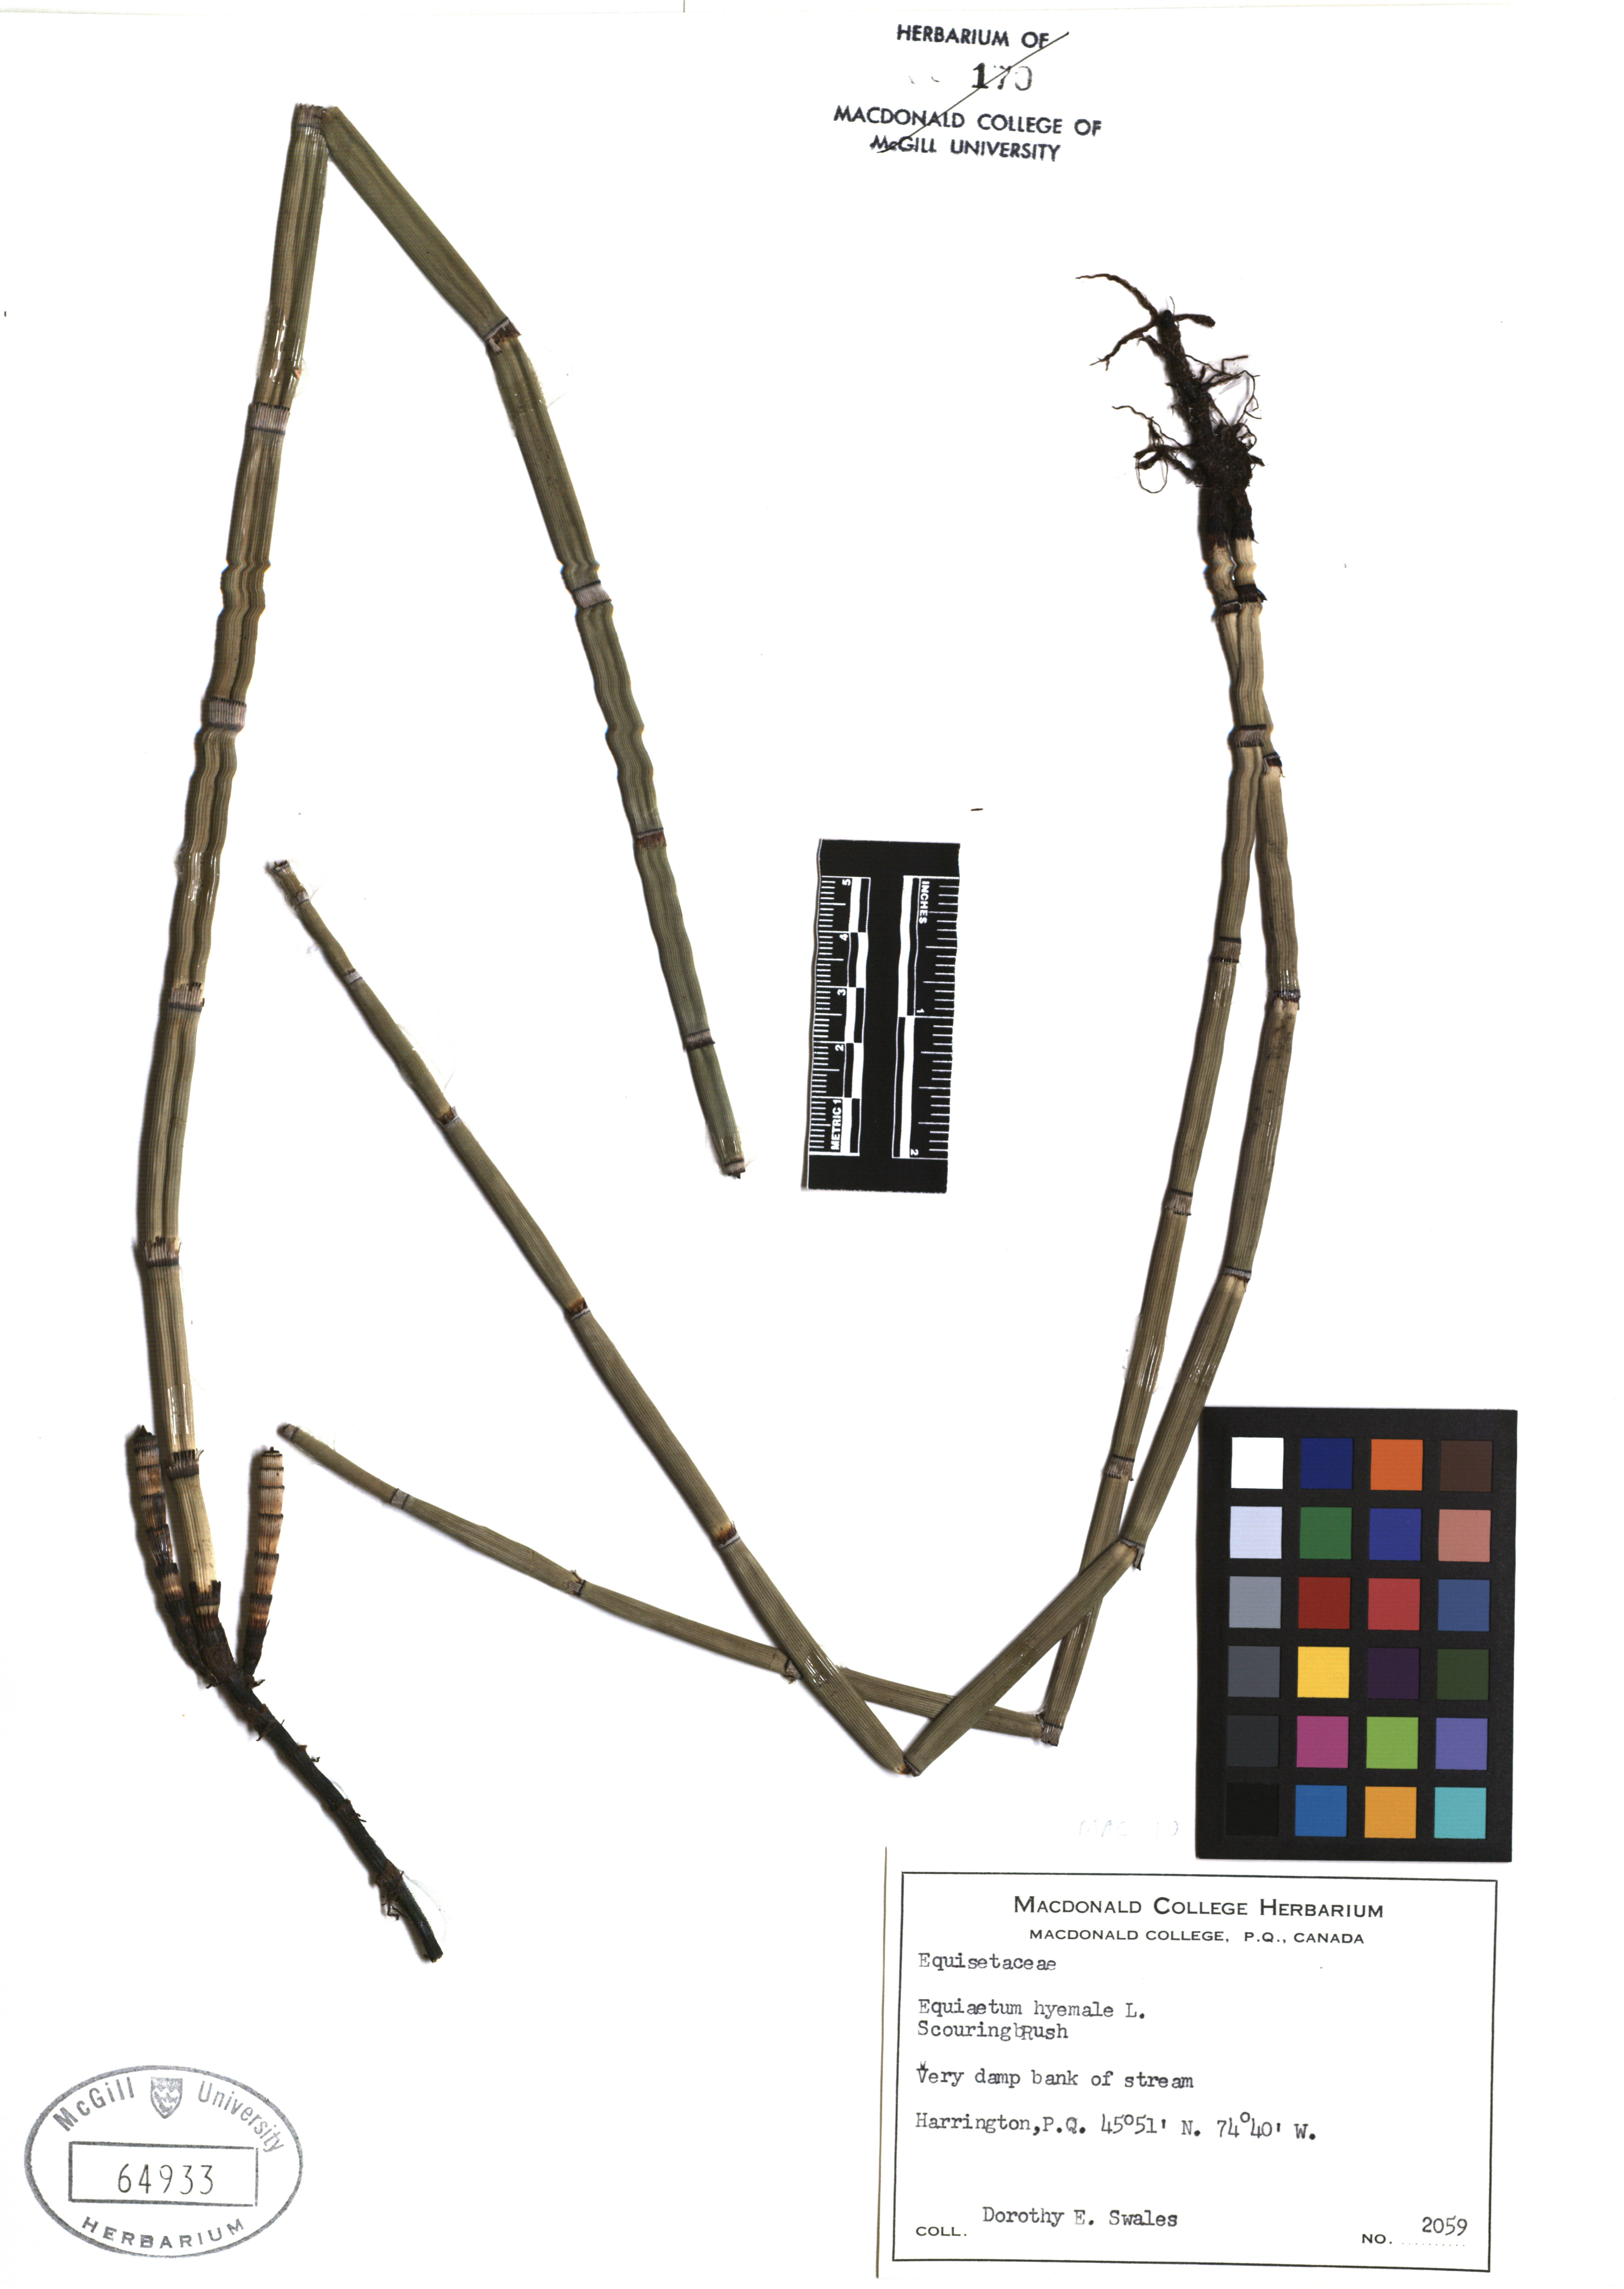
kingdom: Plantae
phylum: Tracheophyta
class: Polypodiopsida
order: Equisetales
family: Equisetaceae
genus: Equisetum
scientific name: Equisetum hyemale
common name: Rough horsetail
